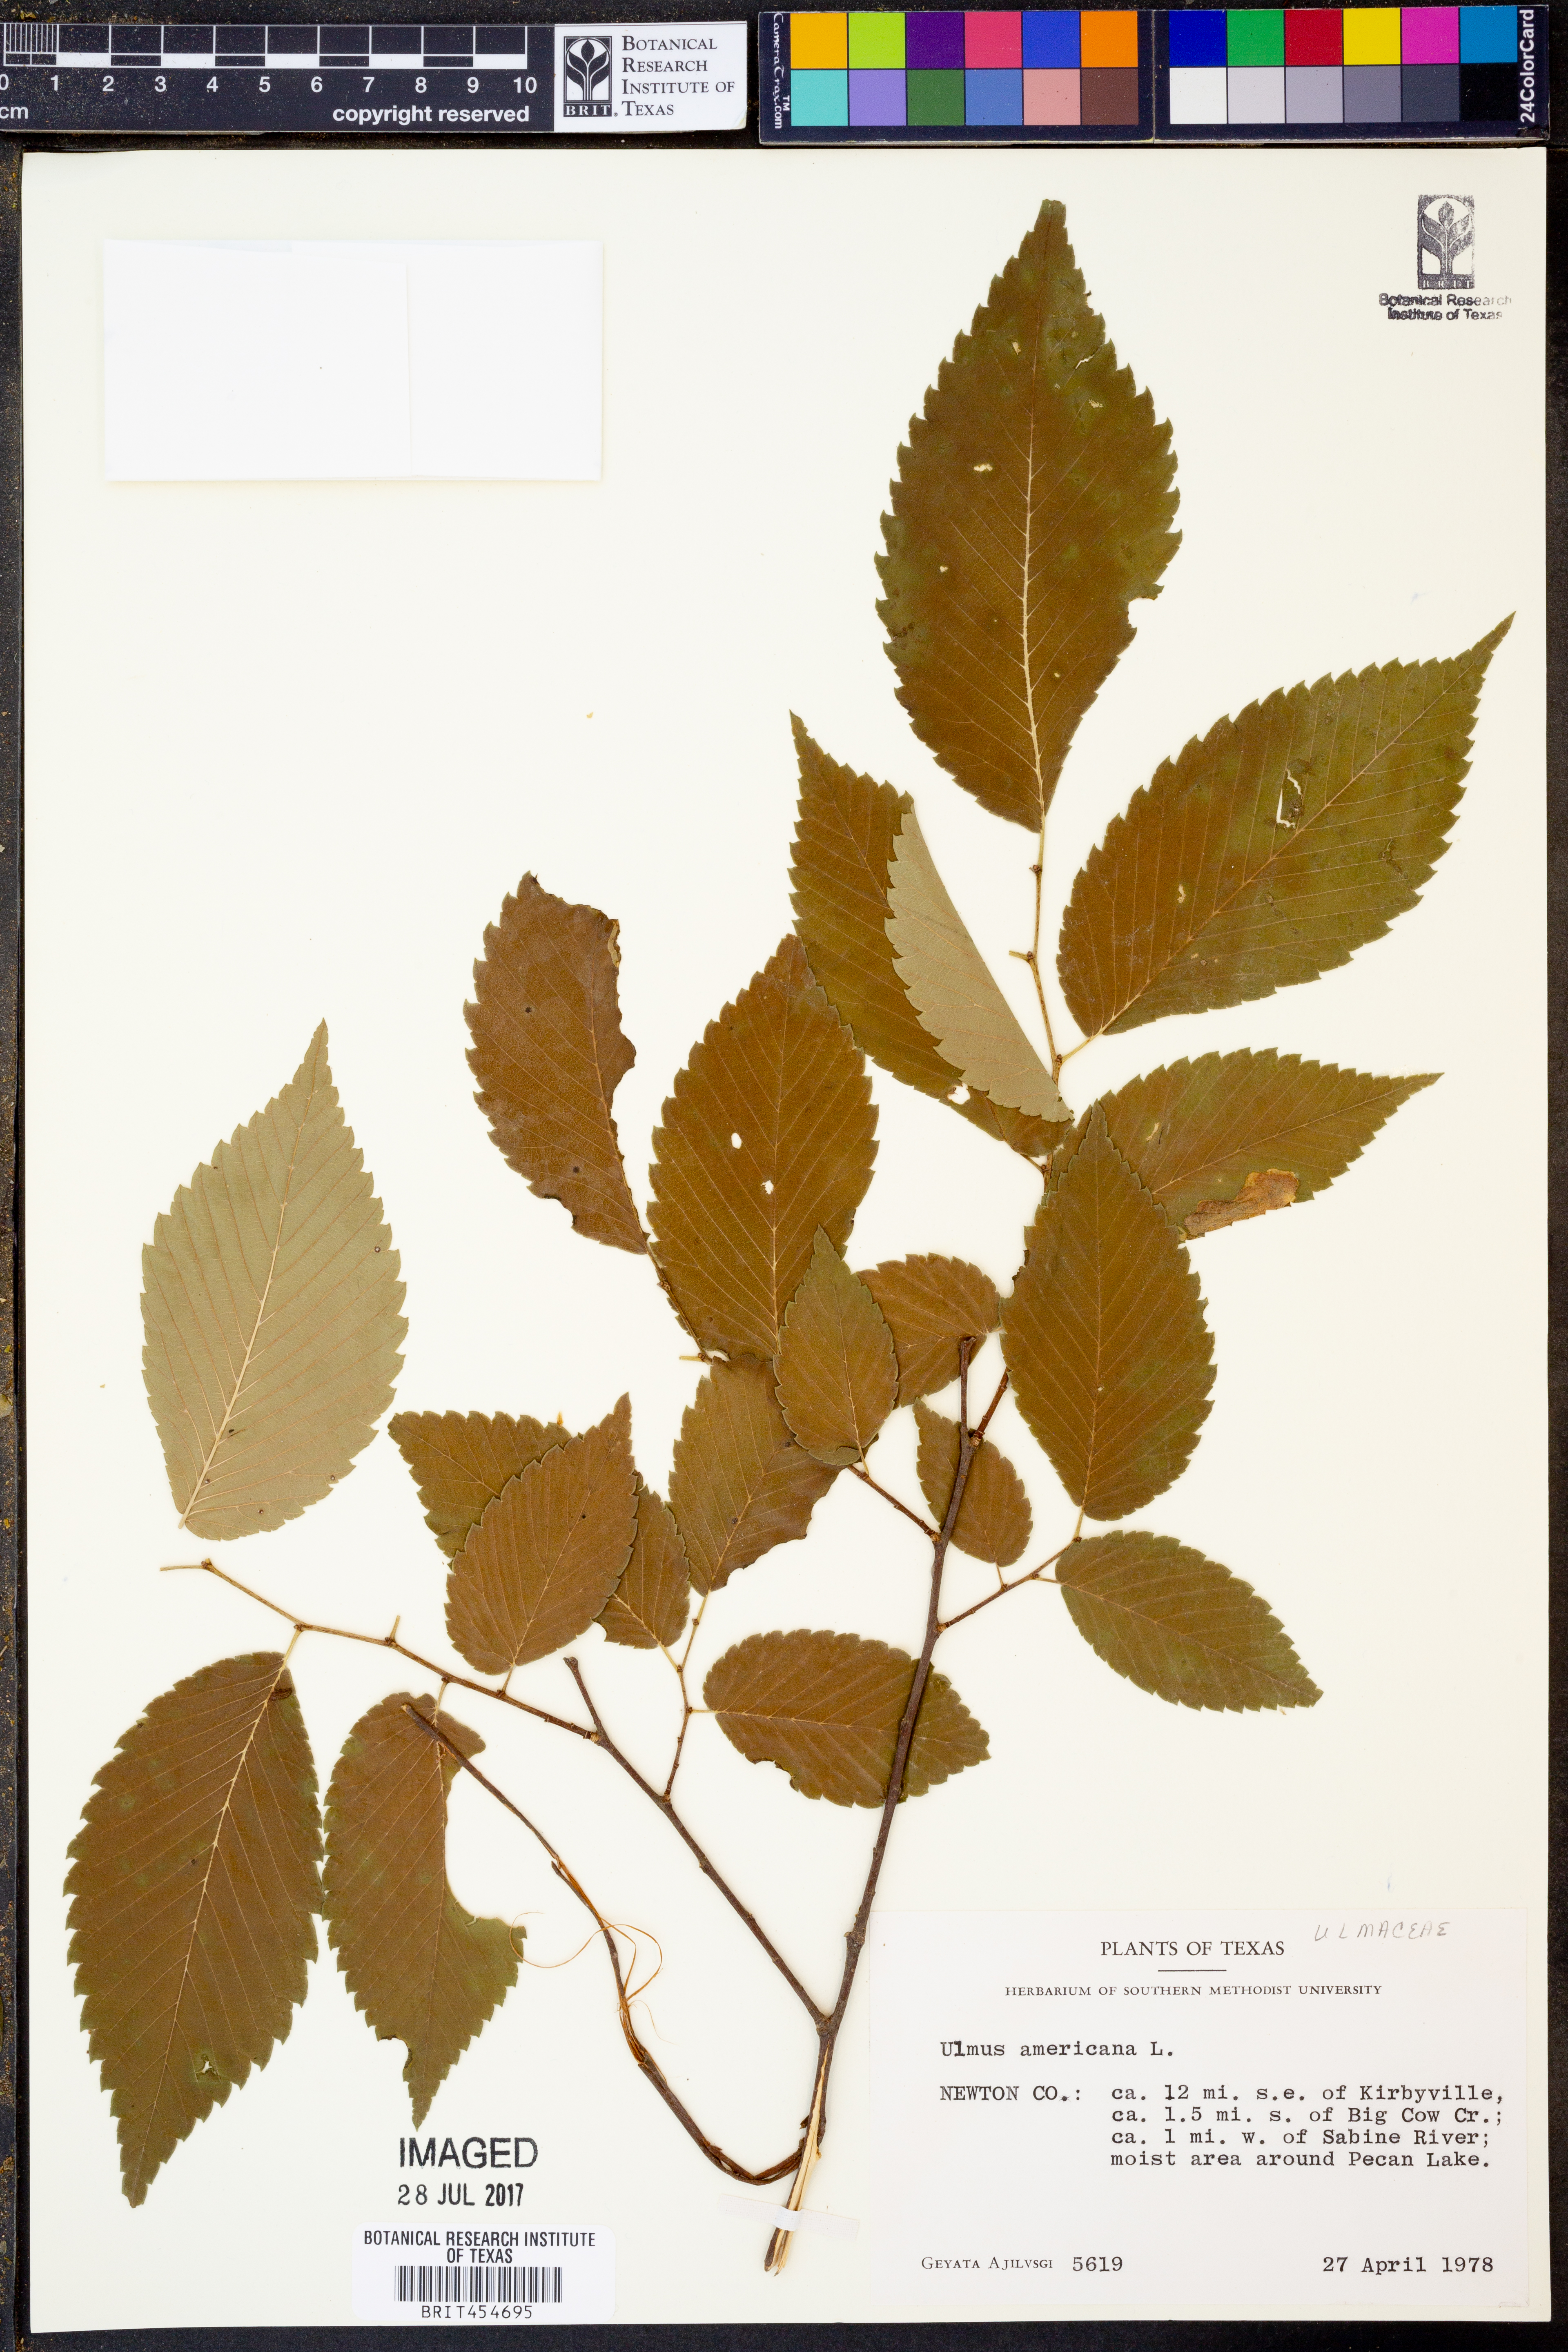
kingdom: Plantae
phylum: Tracheophyta
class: Magnoliopsida
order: Rosales
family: Ulmaceae
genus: Ulmus
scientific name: Ulmus americana
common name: American elm
